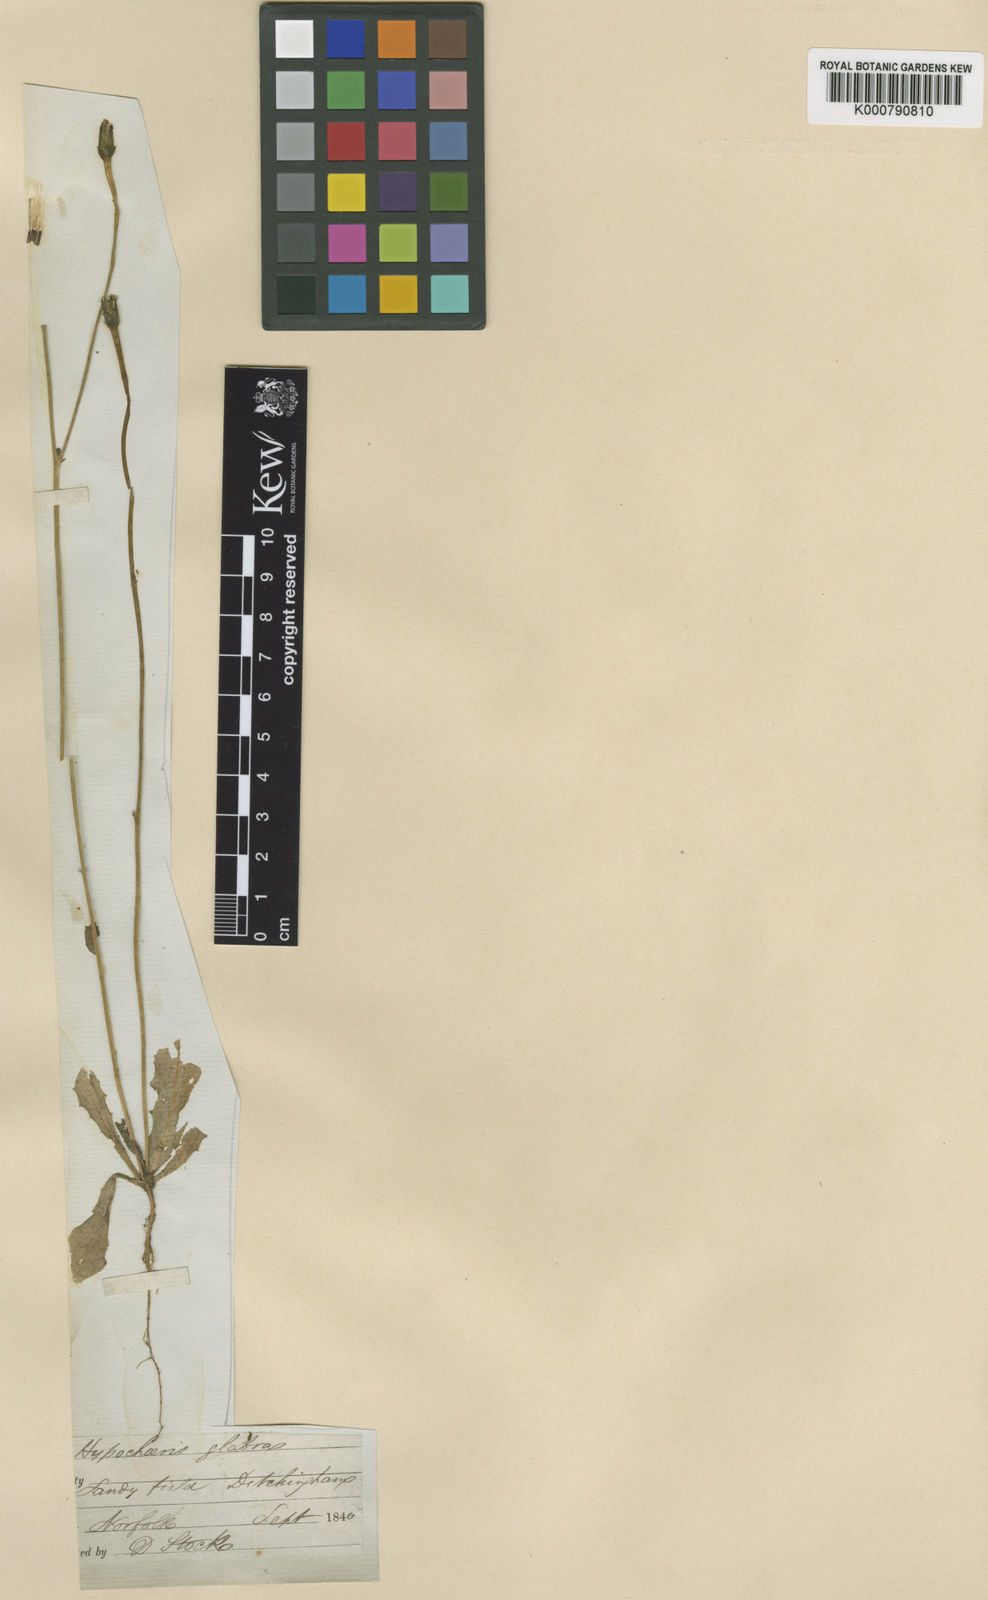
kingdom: Plantae
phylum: Tracheophyta
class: Magnoliopsida
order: Asterales
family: Asteraceae
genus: Hypochaeris
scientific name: Hypochaeris glabra
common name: Smooth catsear
